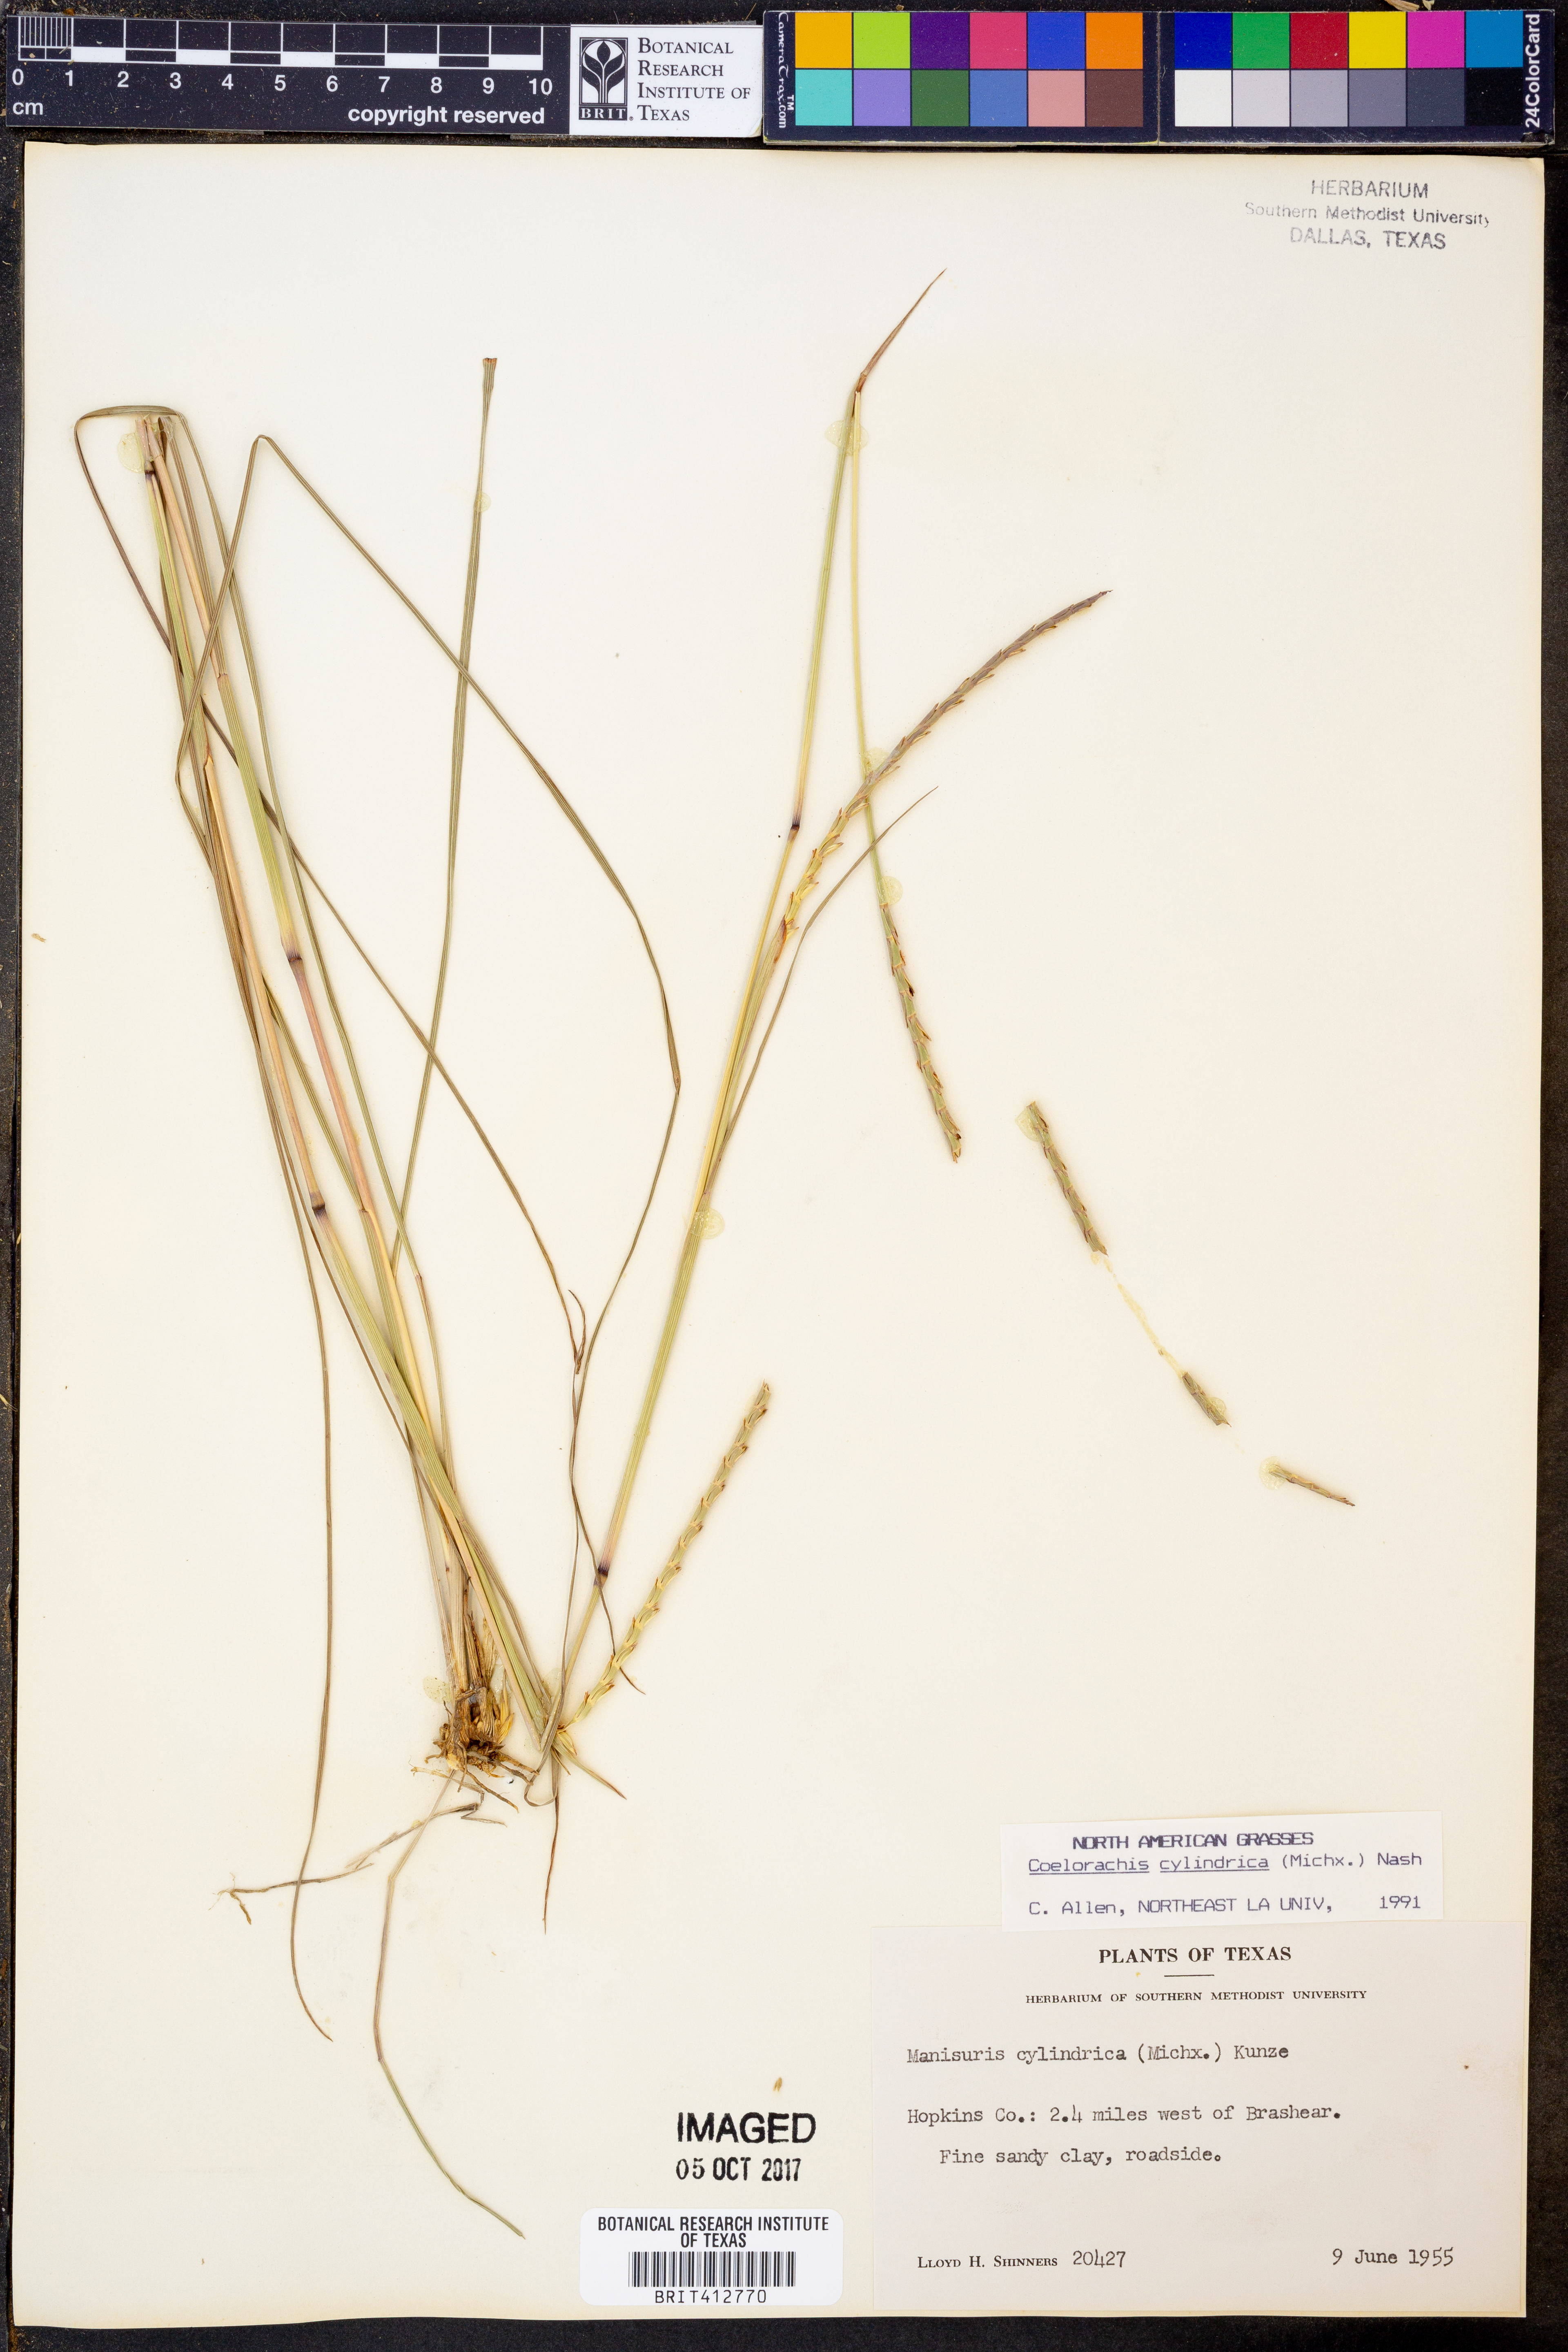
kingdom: Plantae
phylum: Tracheophyta
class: Liliopsida
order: Poales
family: Poaceae
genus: Rottboellia
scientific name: Rottboellia campestris
